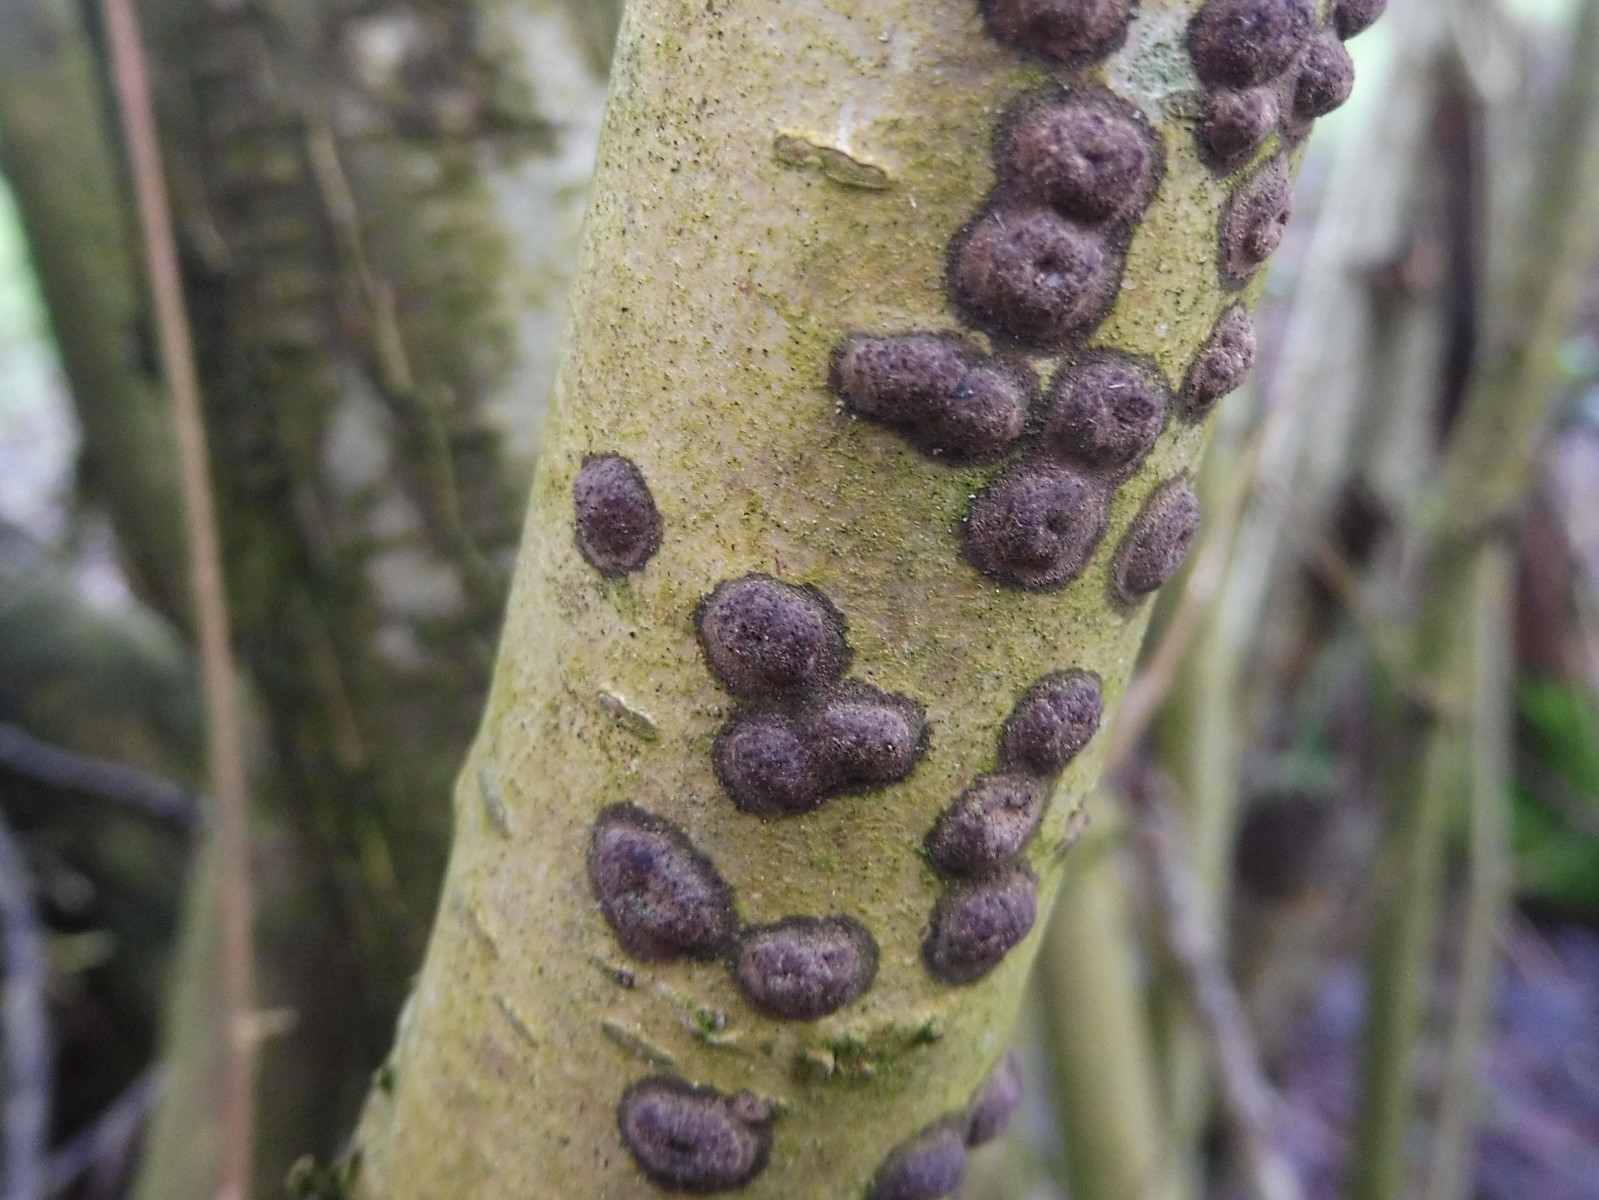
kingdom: Fungi
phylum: Ascomycota
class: Sordariomycetes
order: Xylariales
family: Hypoxylaceae
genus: Hypoxylon
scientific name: Hypoxylon fuscum
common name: kegleformet kulbær
